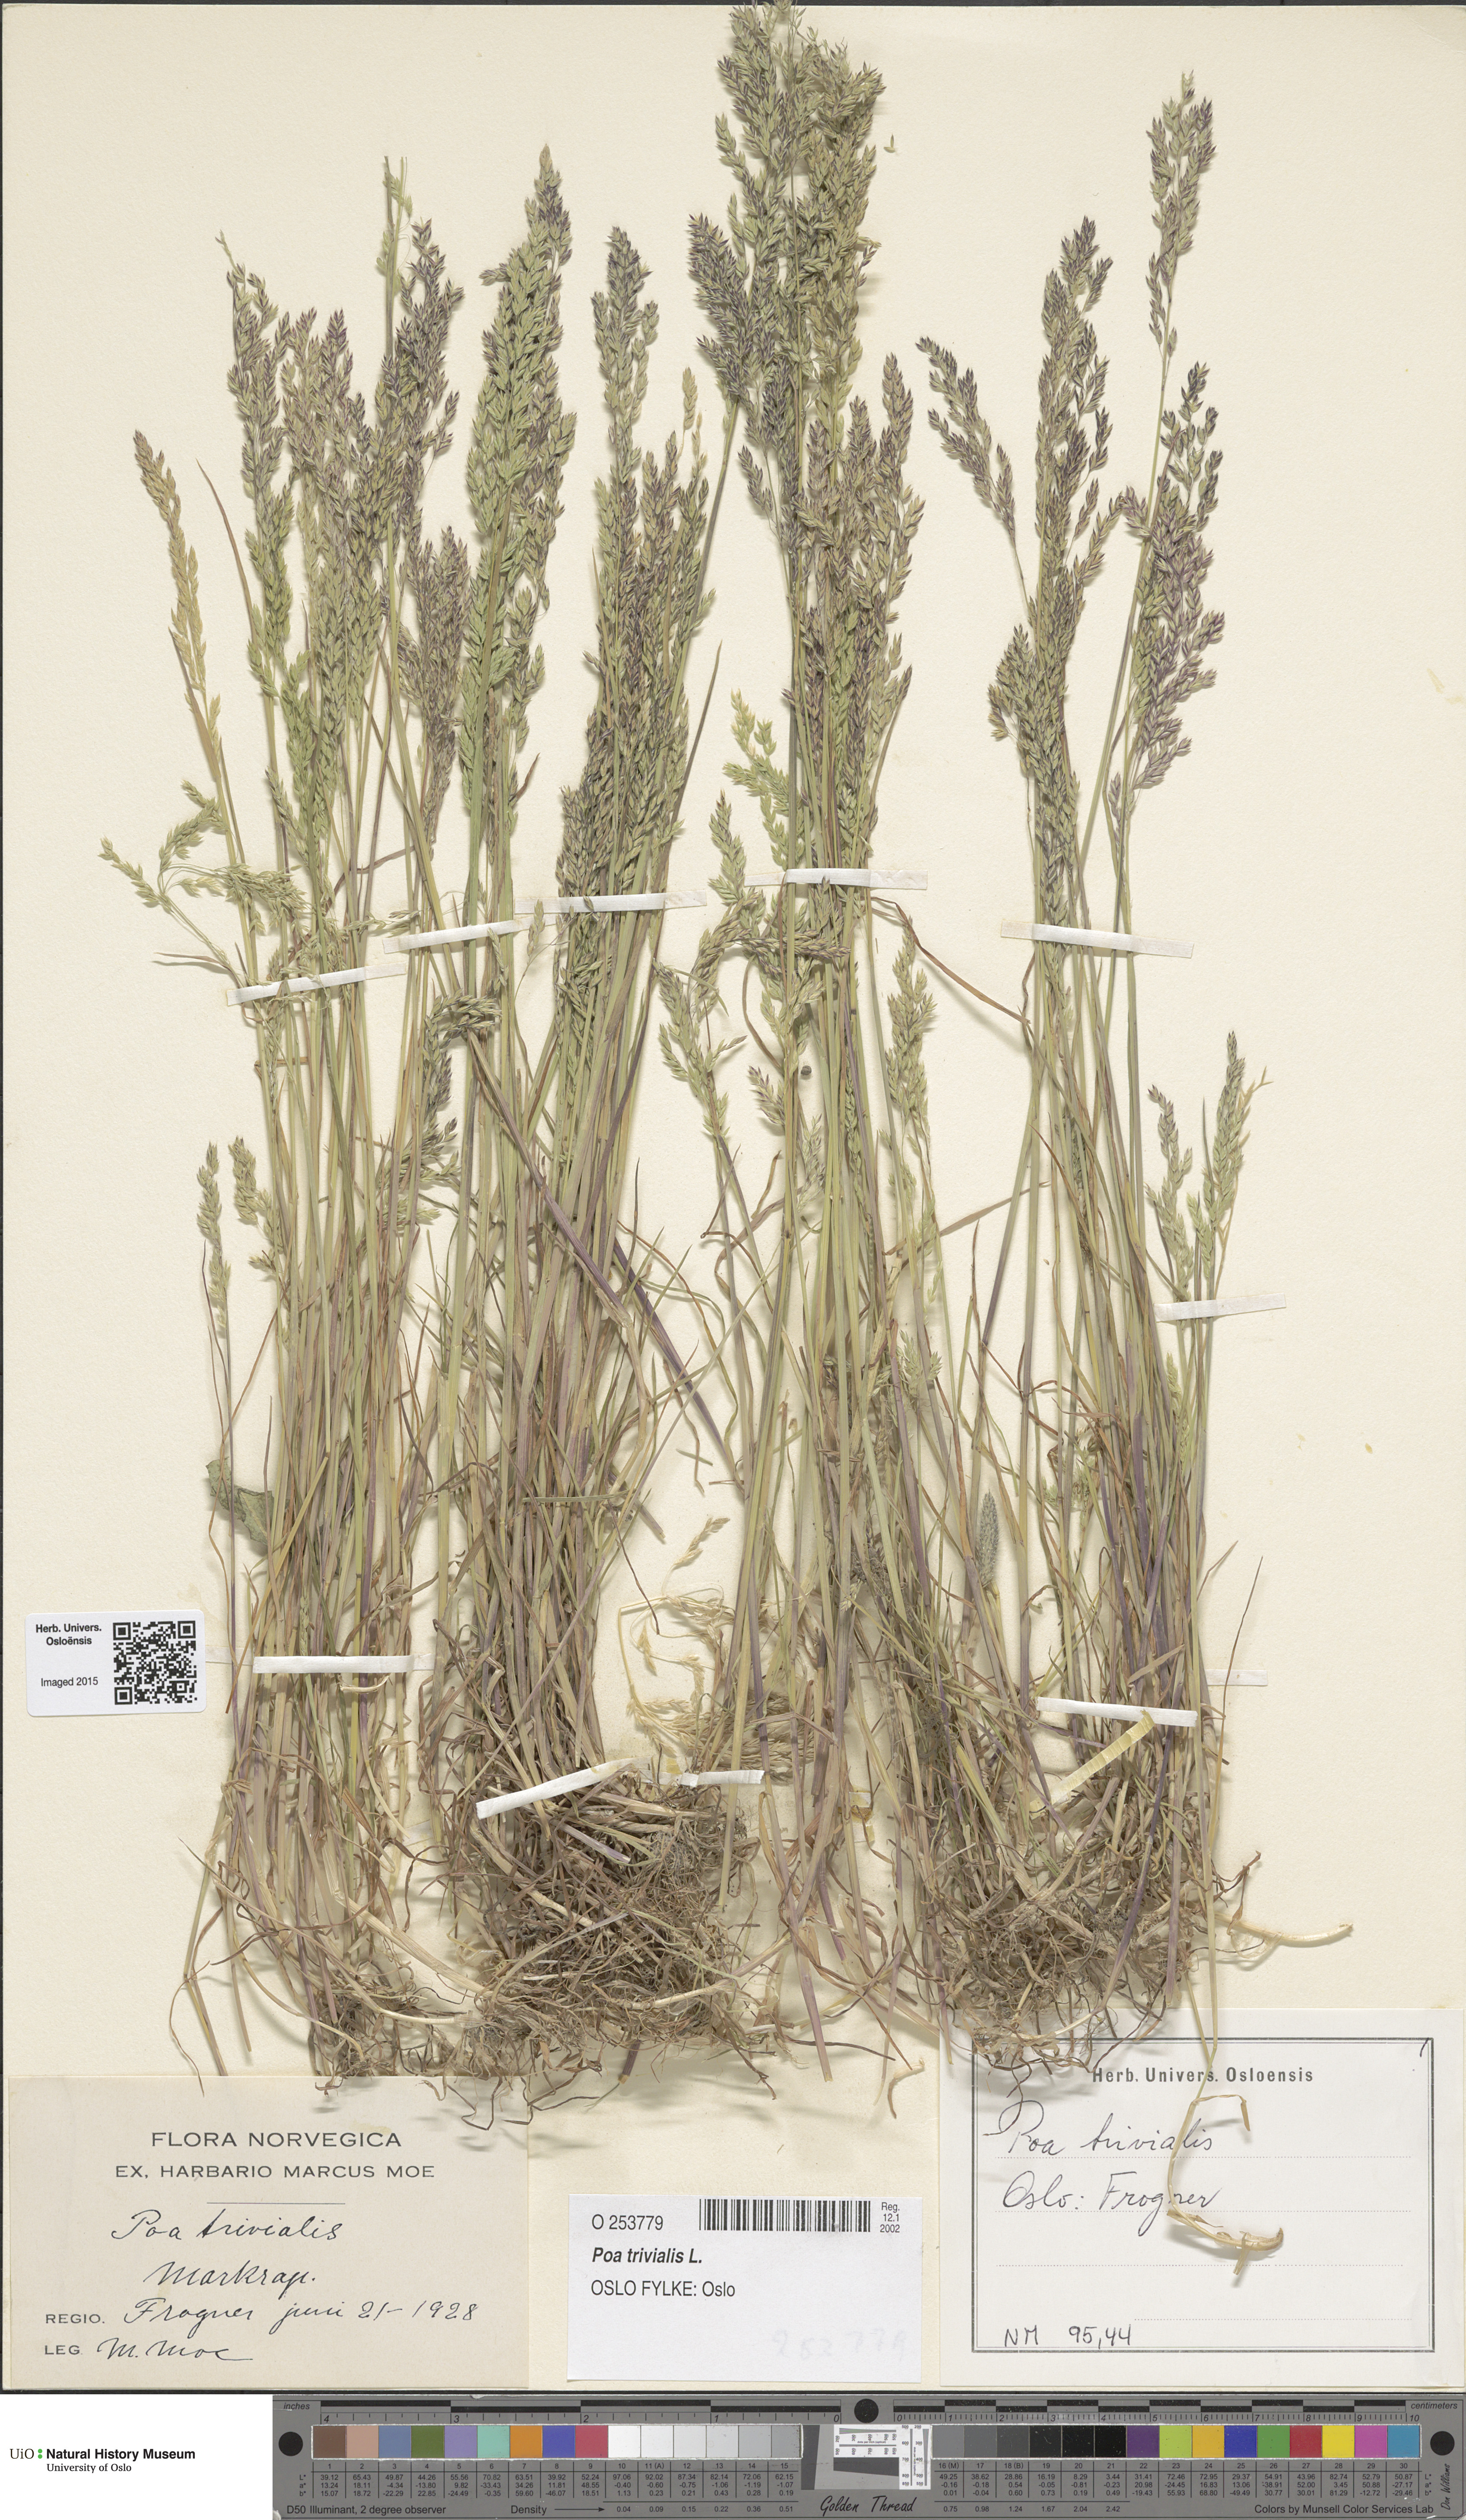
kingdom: Plantae
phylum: Tracheophyta
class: Liliopsida
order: Poales
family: Poaceae
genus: Poa
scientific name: Poa trivialis
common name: Rough bluegrass
